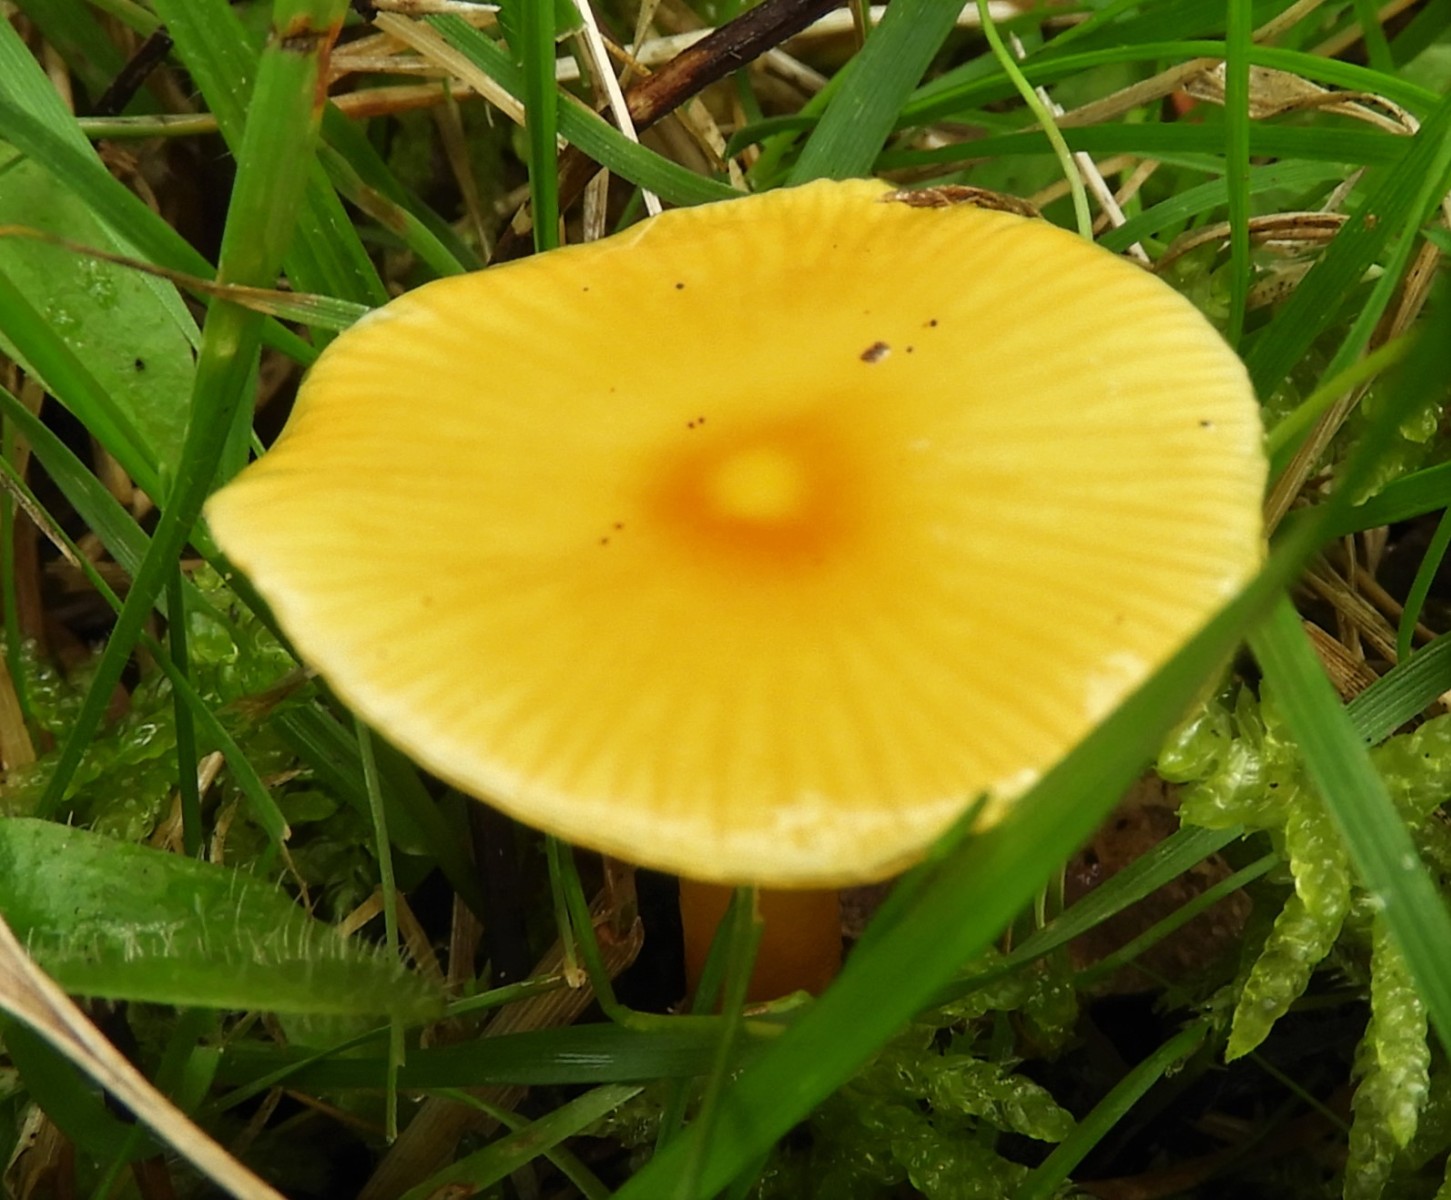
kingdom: Fungi
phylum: Basidiomycota
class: Agaricomycetes
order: Agaricales
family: Hygrophoraceae
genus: Hygrocybe
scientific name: Hygrocybe glutinipes
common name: slimstokket vokshat
